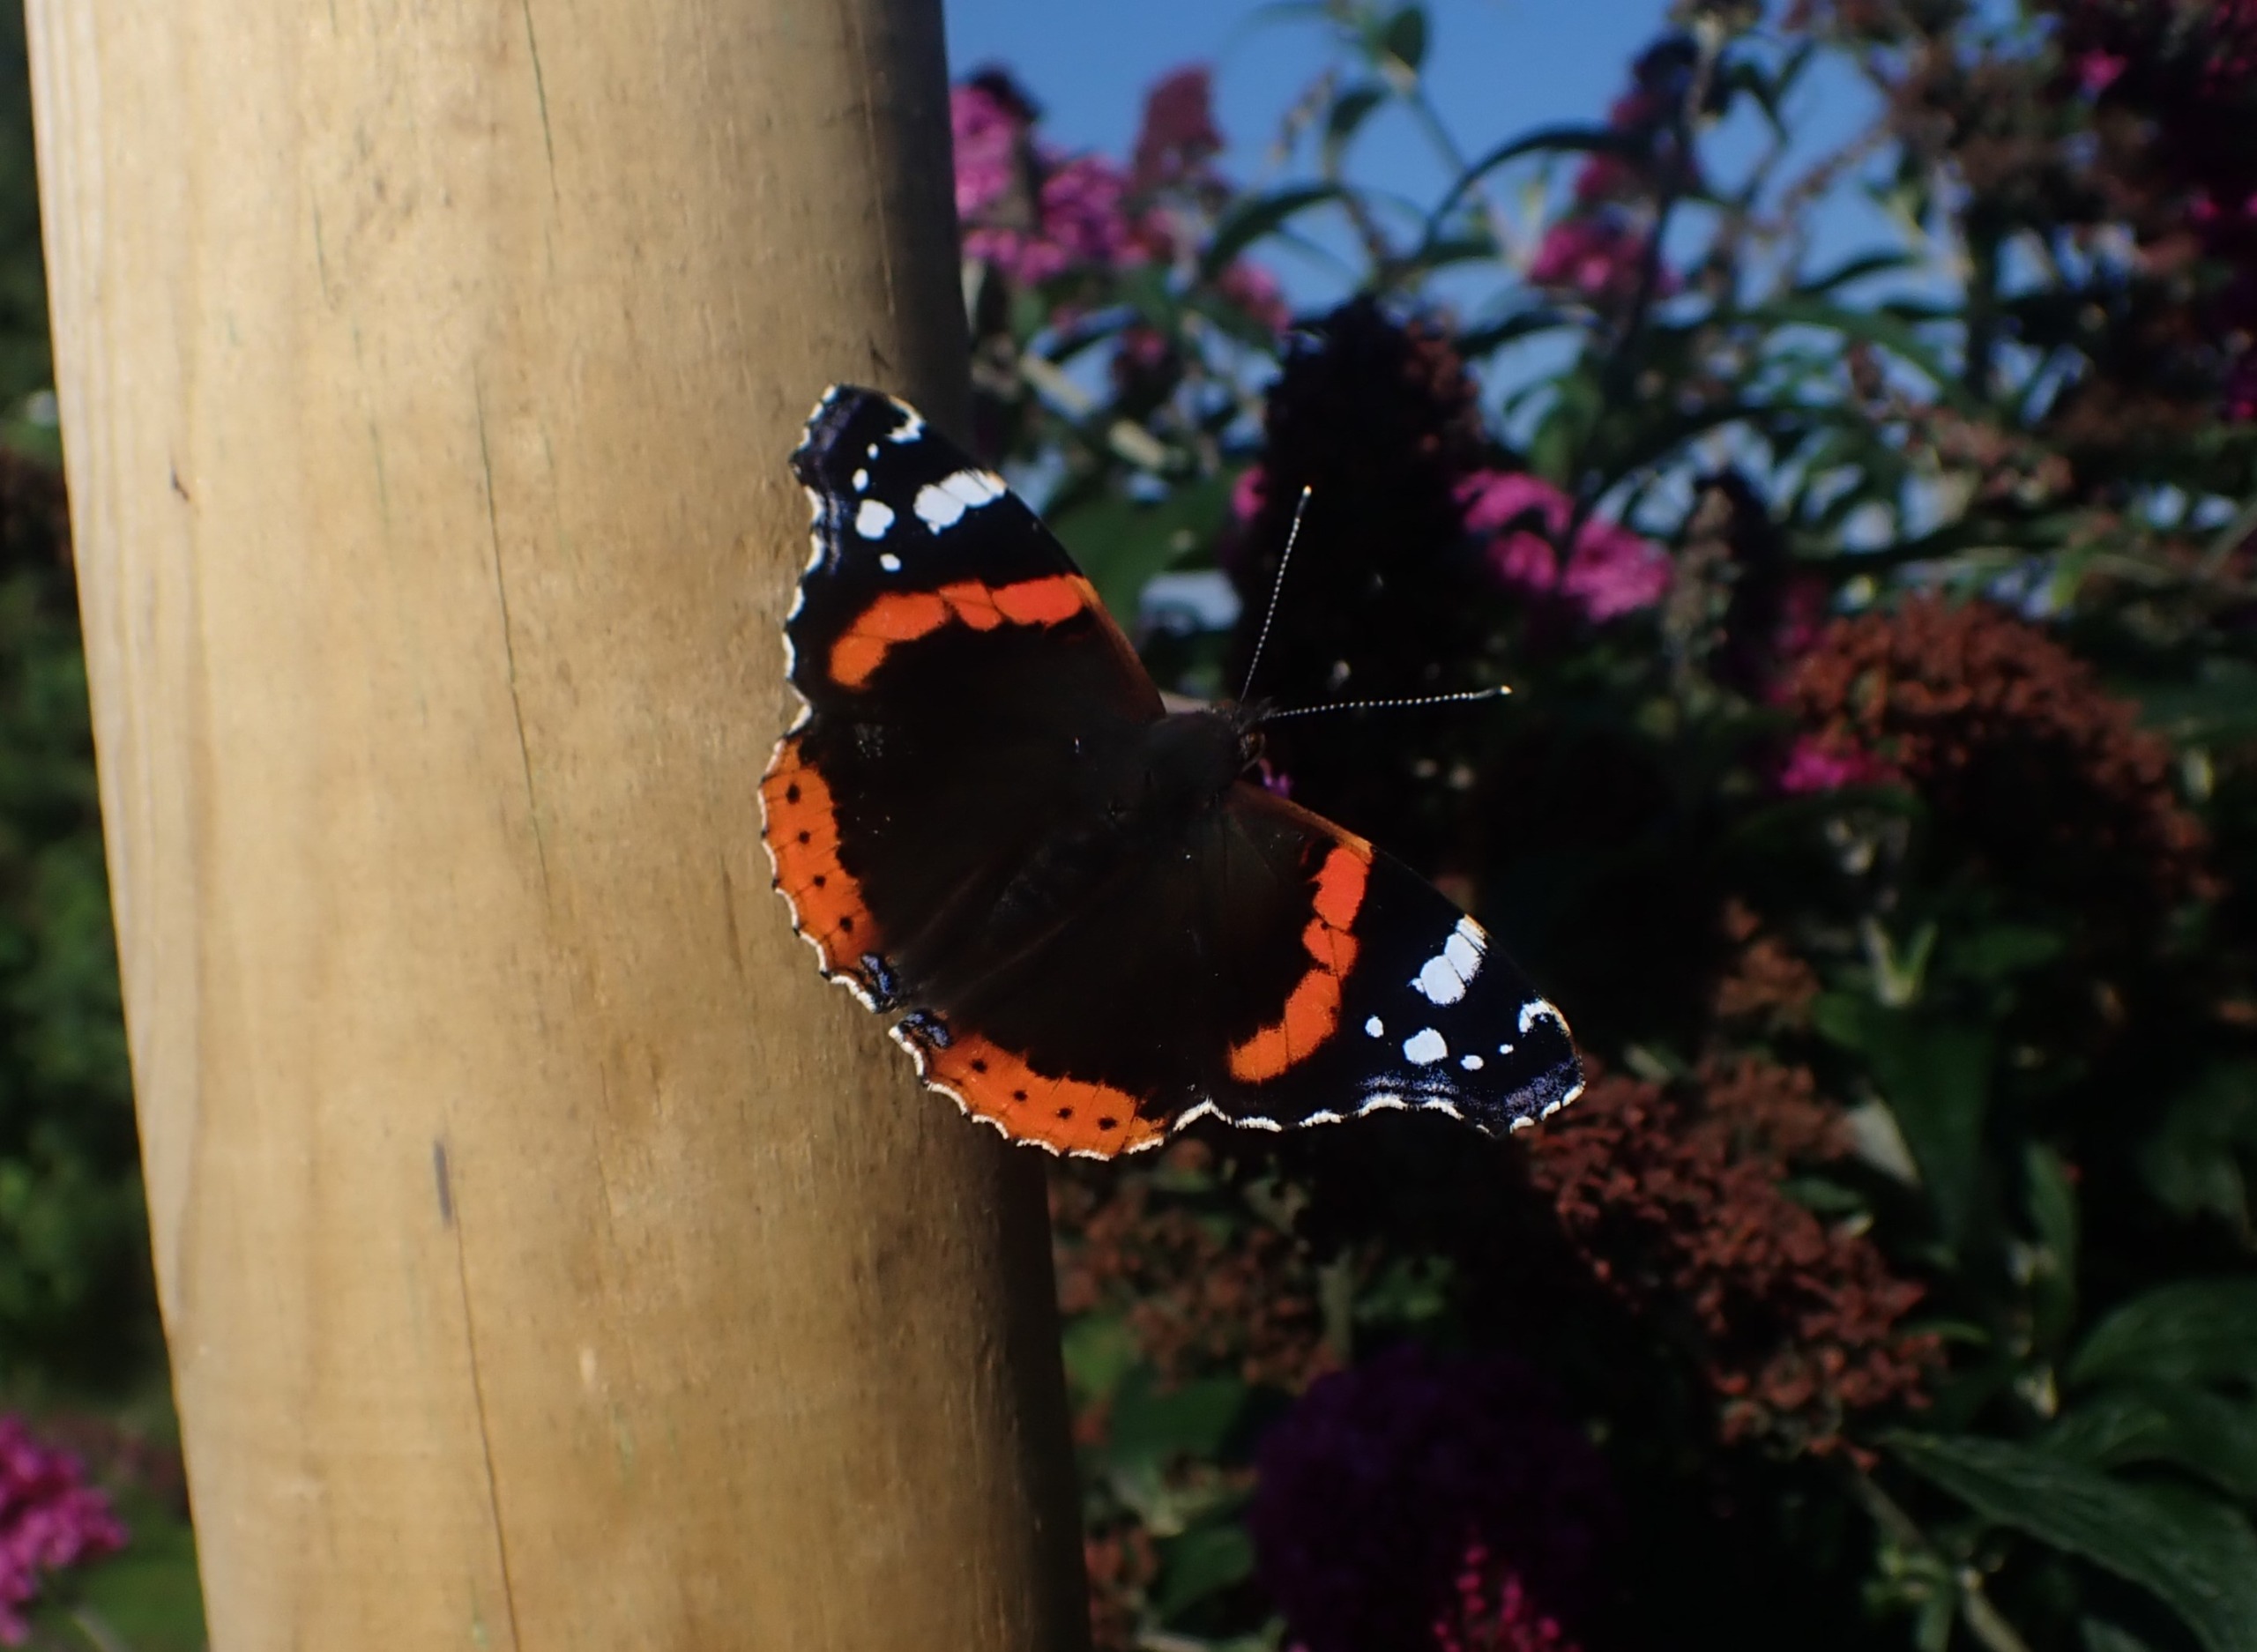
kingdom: Animalia
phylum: Arthropoda
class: Insecta
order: Lepidoptera
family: Nymphalidae
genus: Vanessa
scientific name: Vanessa atalanta
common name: Admiral
